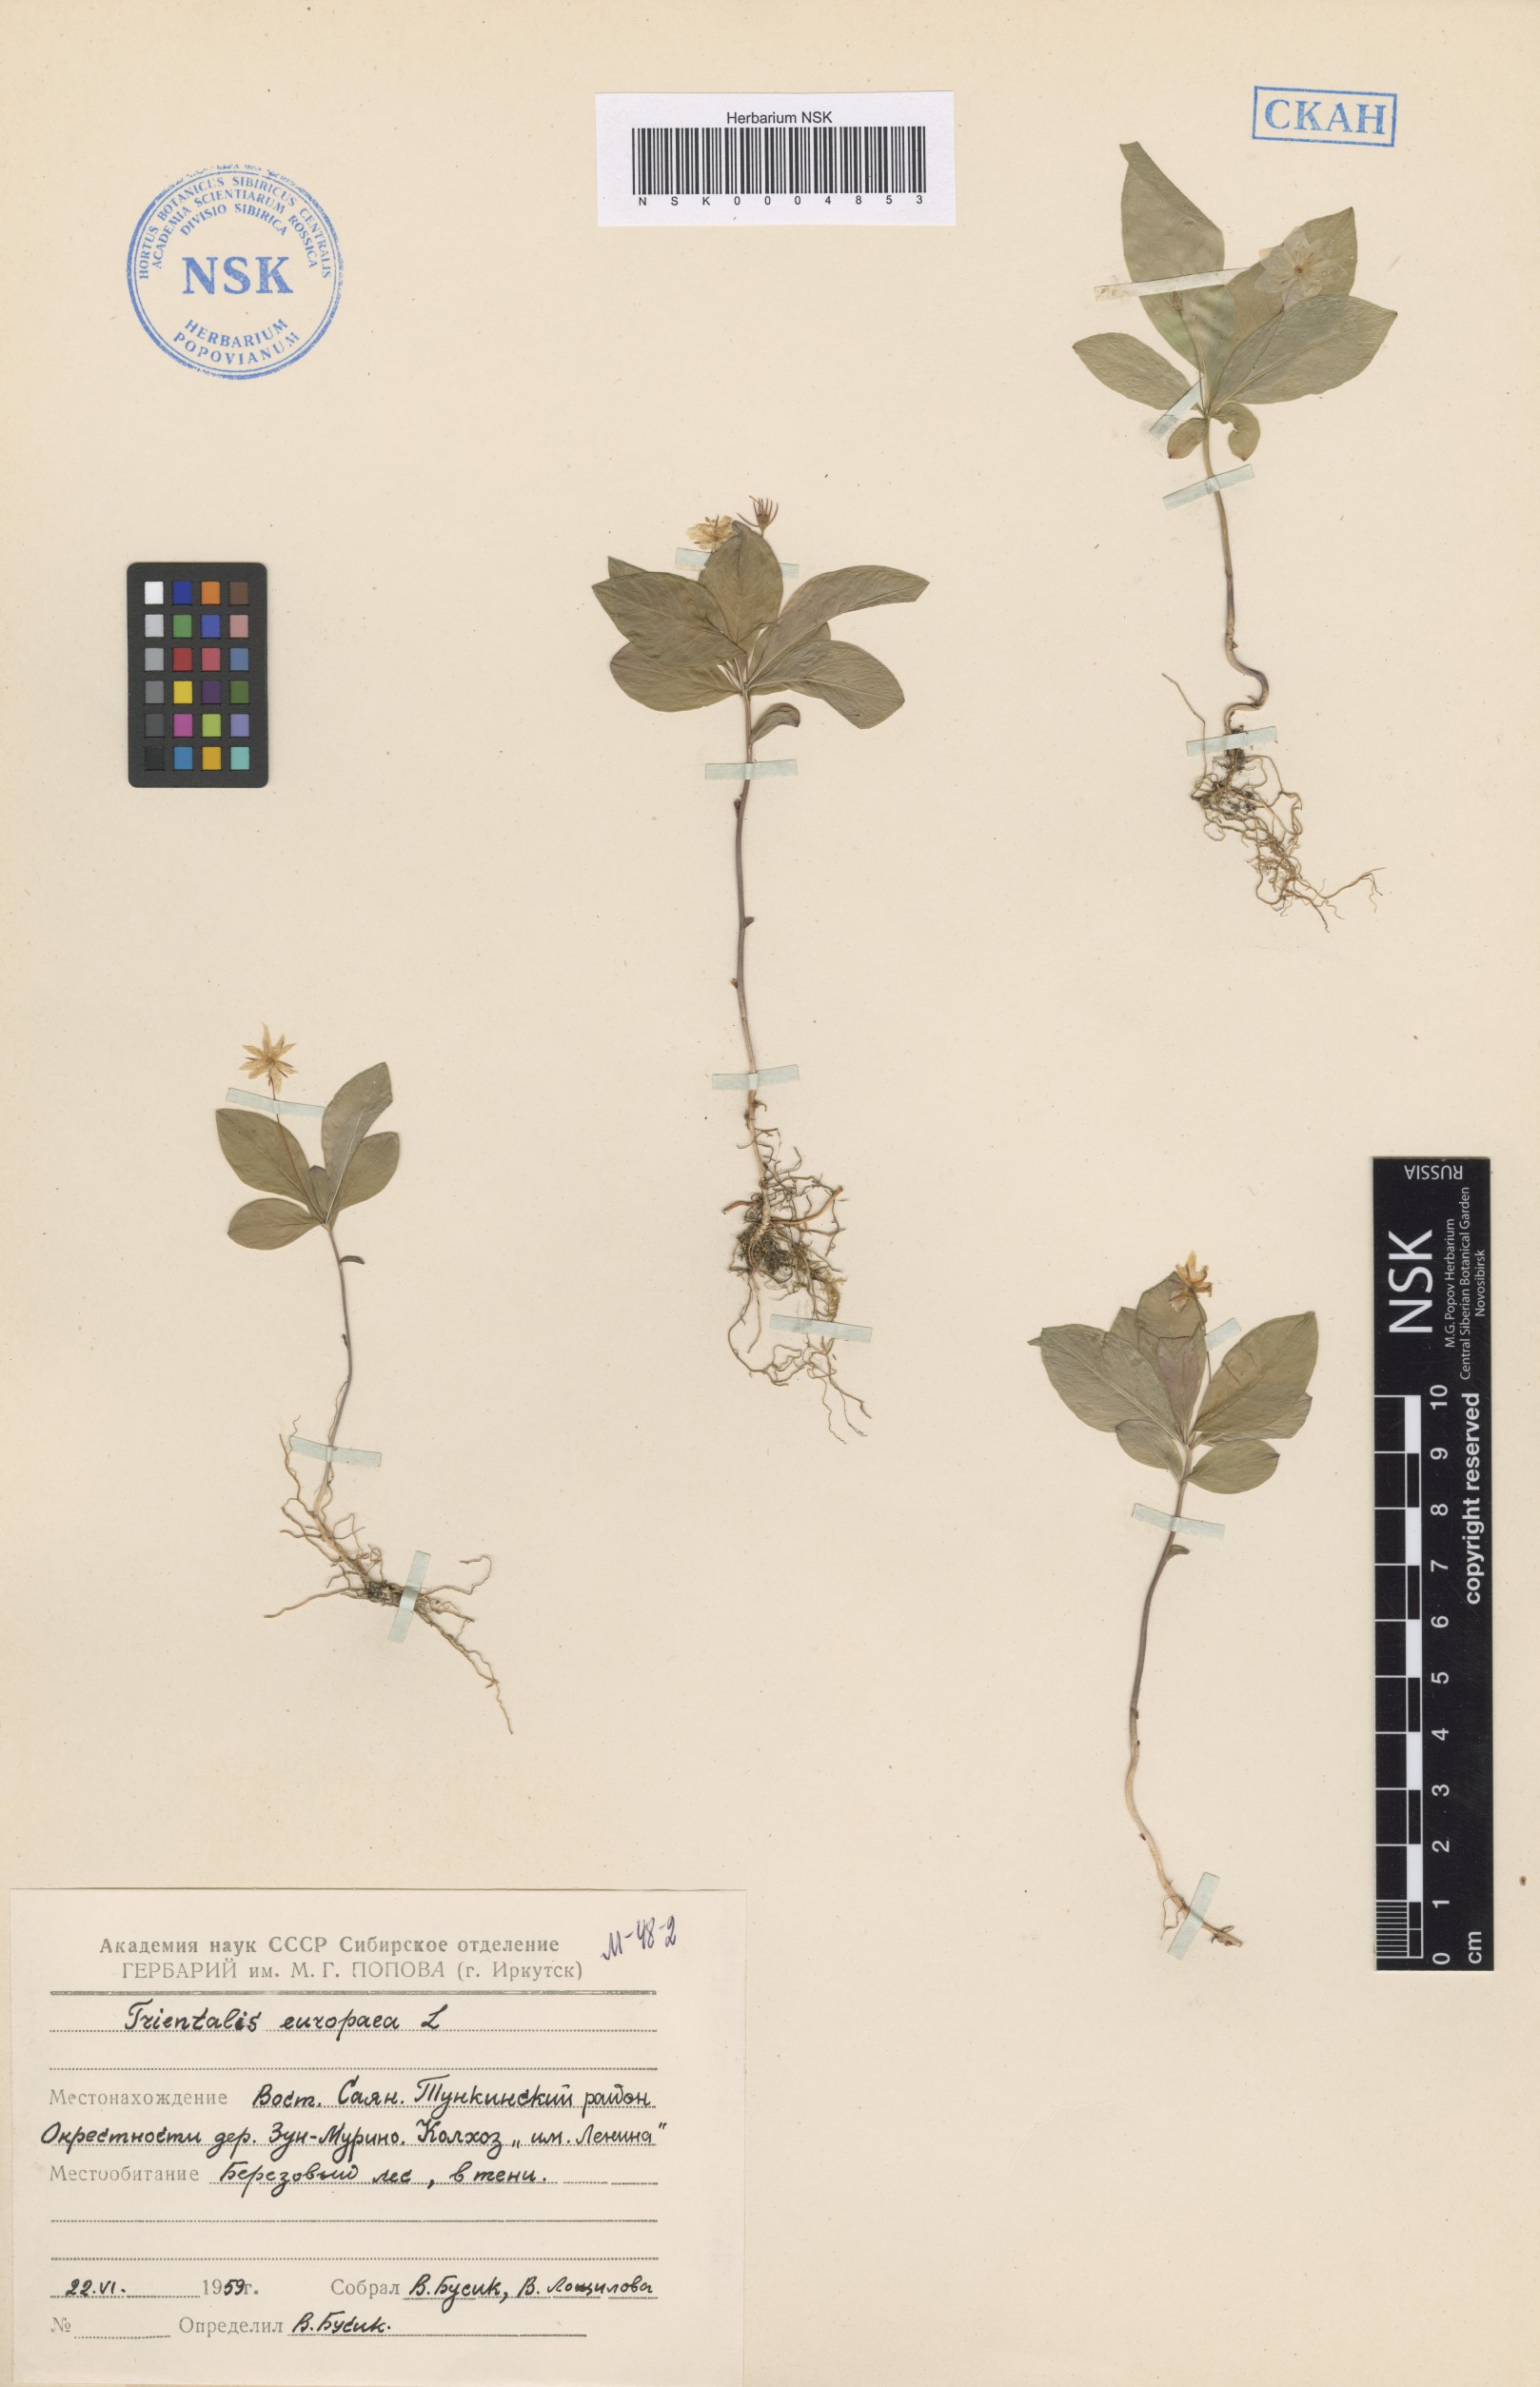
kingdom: Plantae
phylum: Tracheophyta
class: Magnoliopsida
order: Ericales
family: Primulaceae
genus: Lysimachia
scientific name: Lysimachia europaea
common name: Arctic starflower
